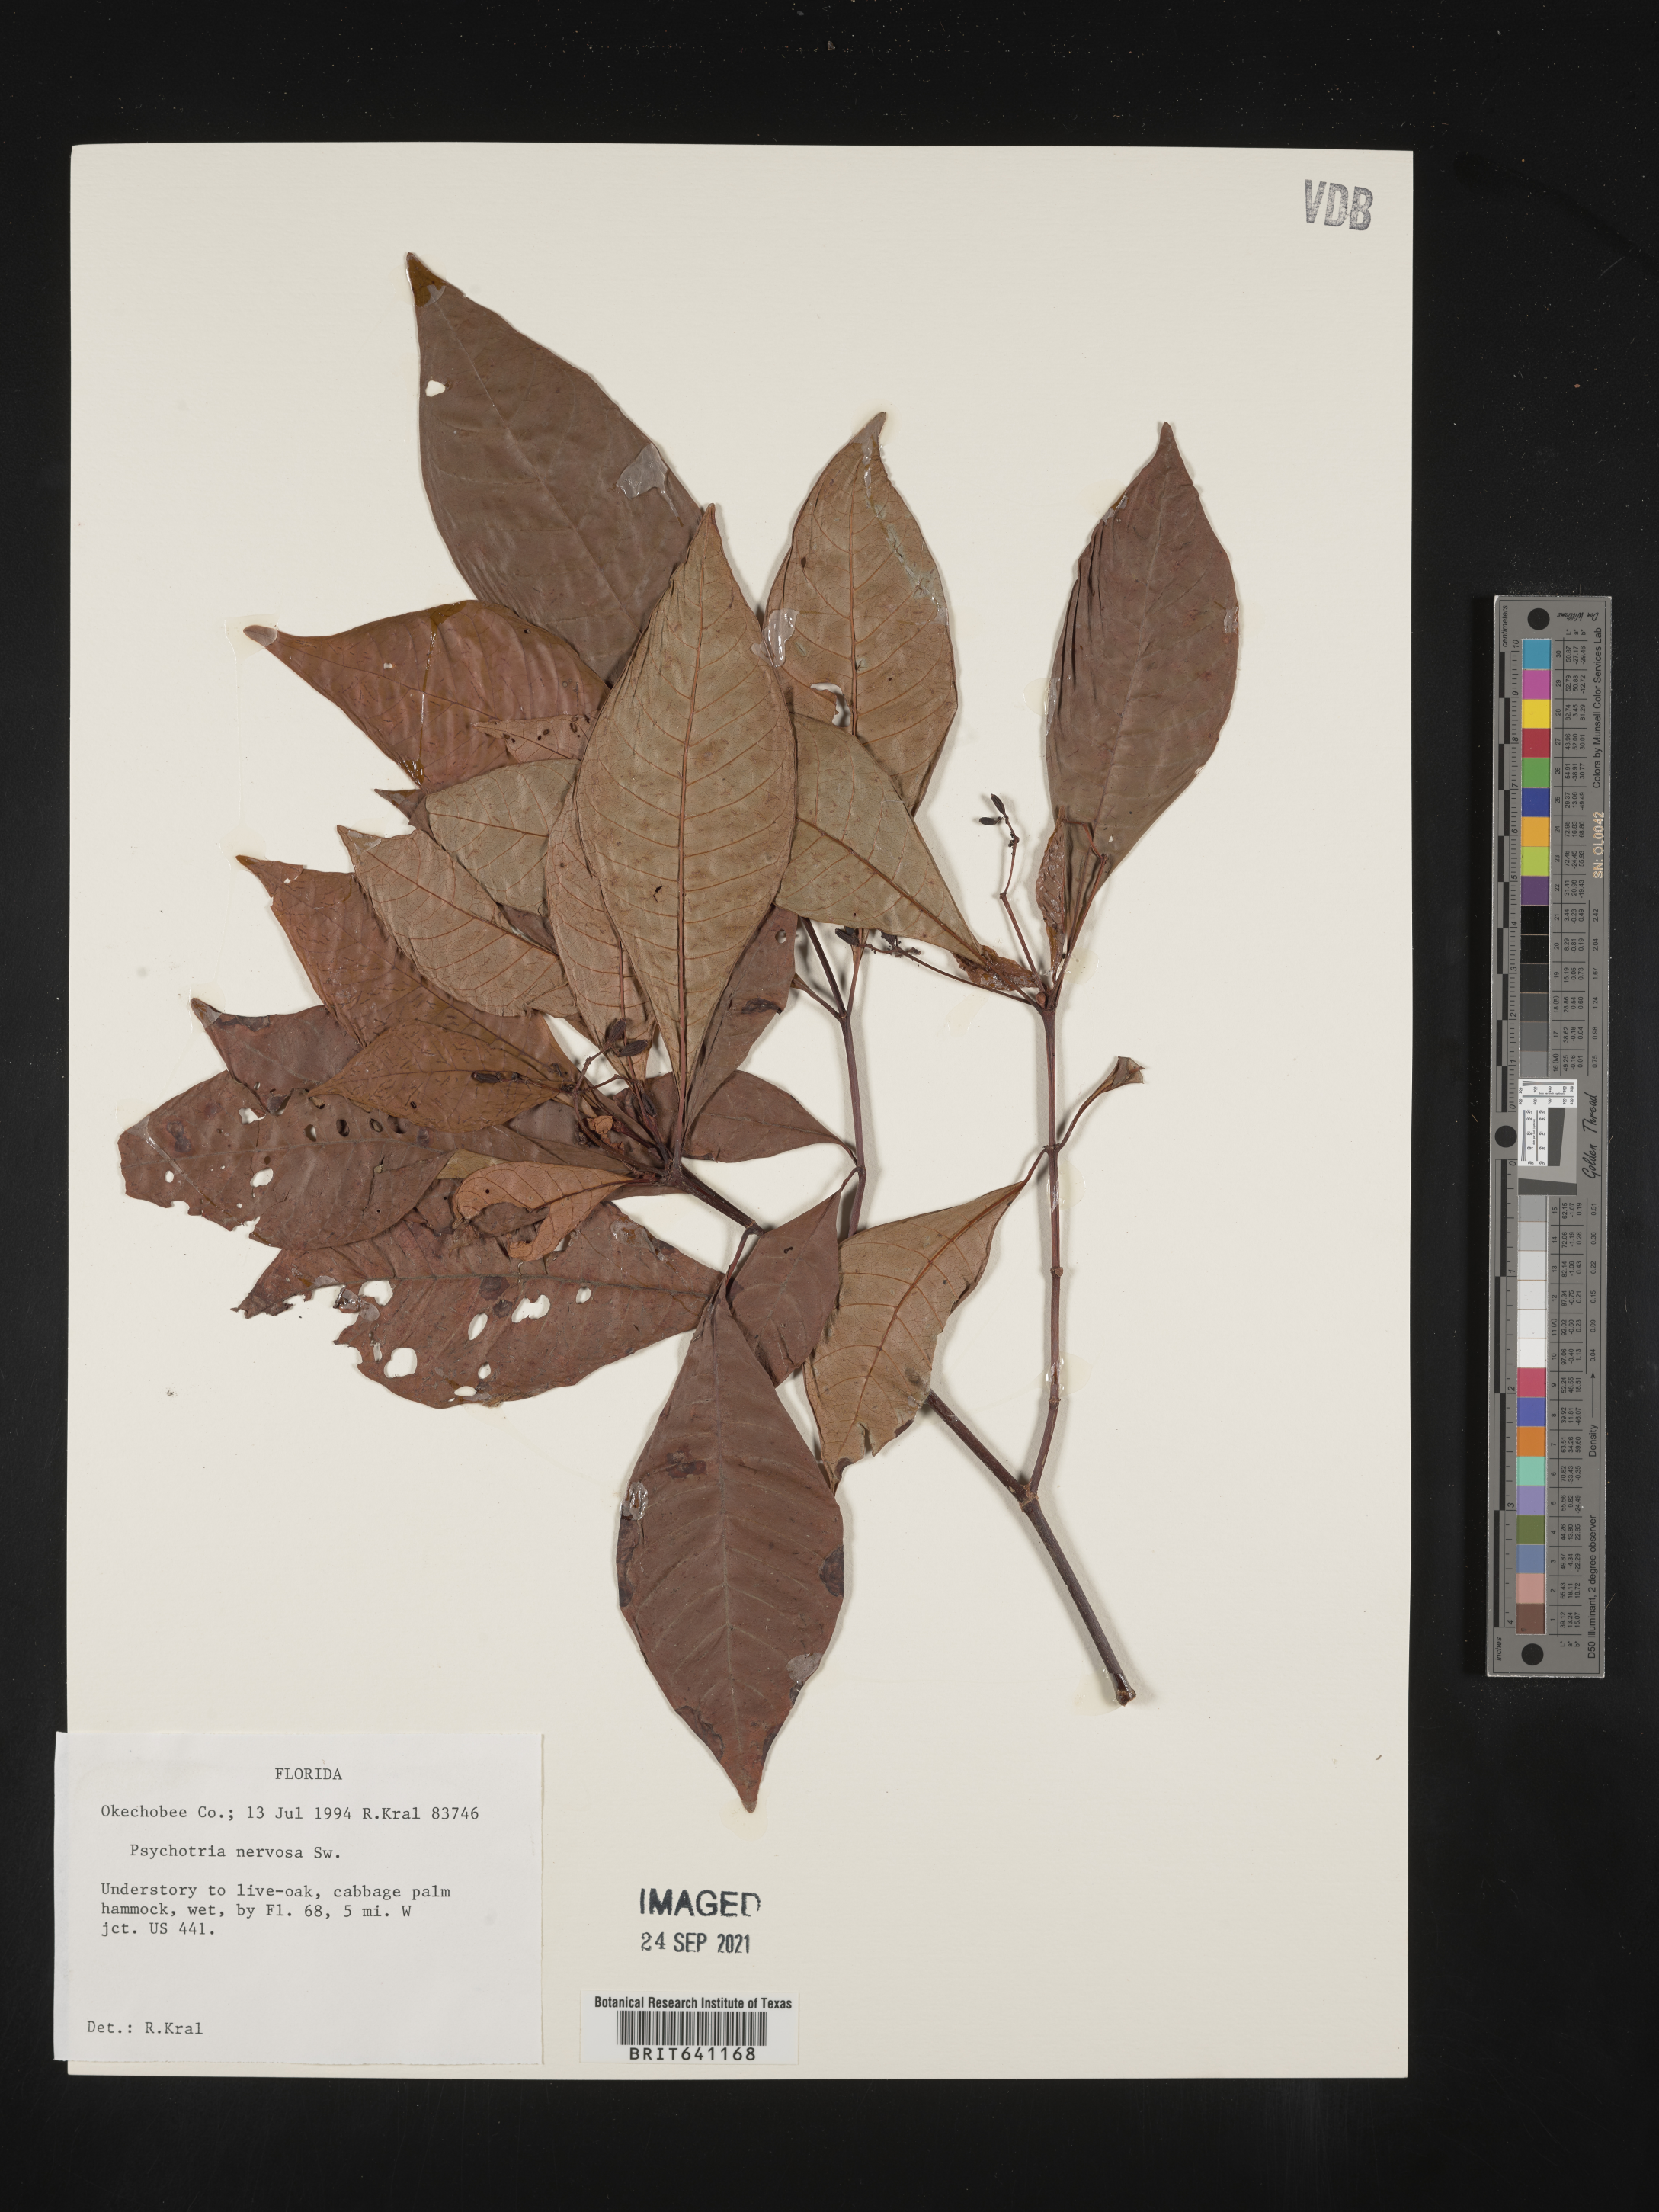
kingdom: Plantae
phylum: Tracheophyta
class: Magnoliopsida
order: Gentianales
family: Rubiaceae
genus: Psychotria
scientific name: Psychotria nervosa
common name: Bastard cankerberry
